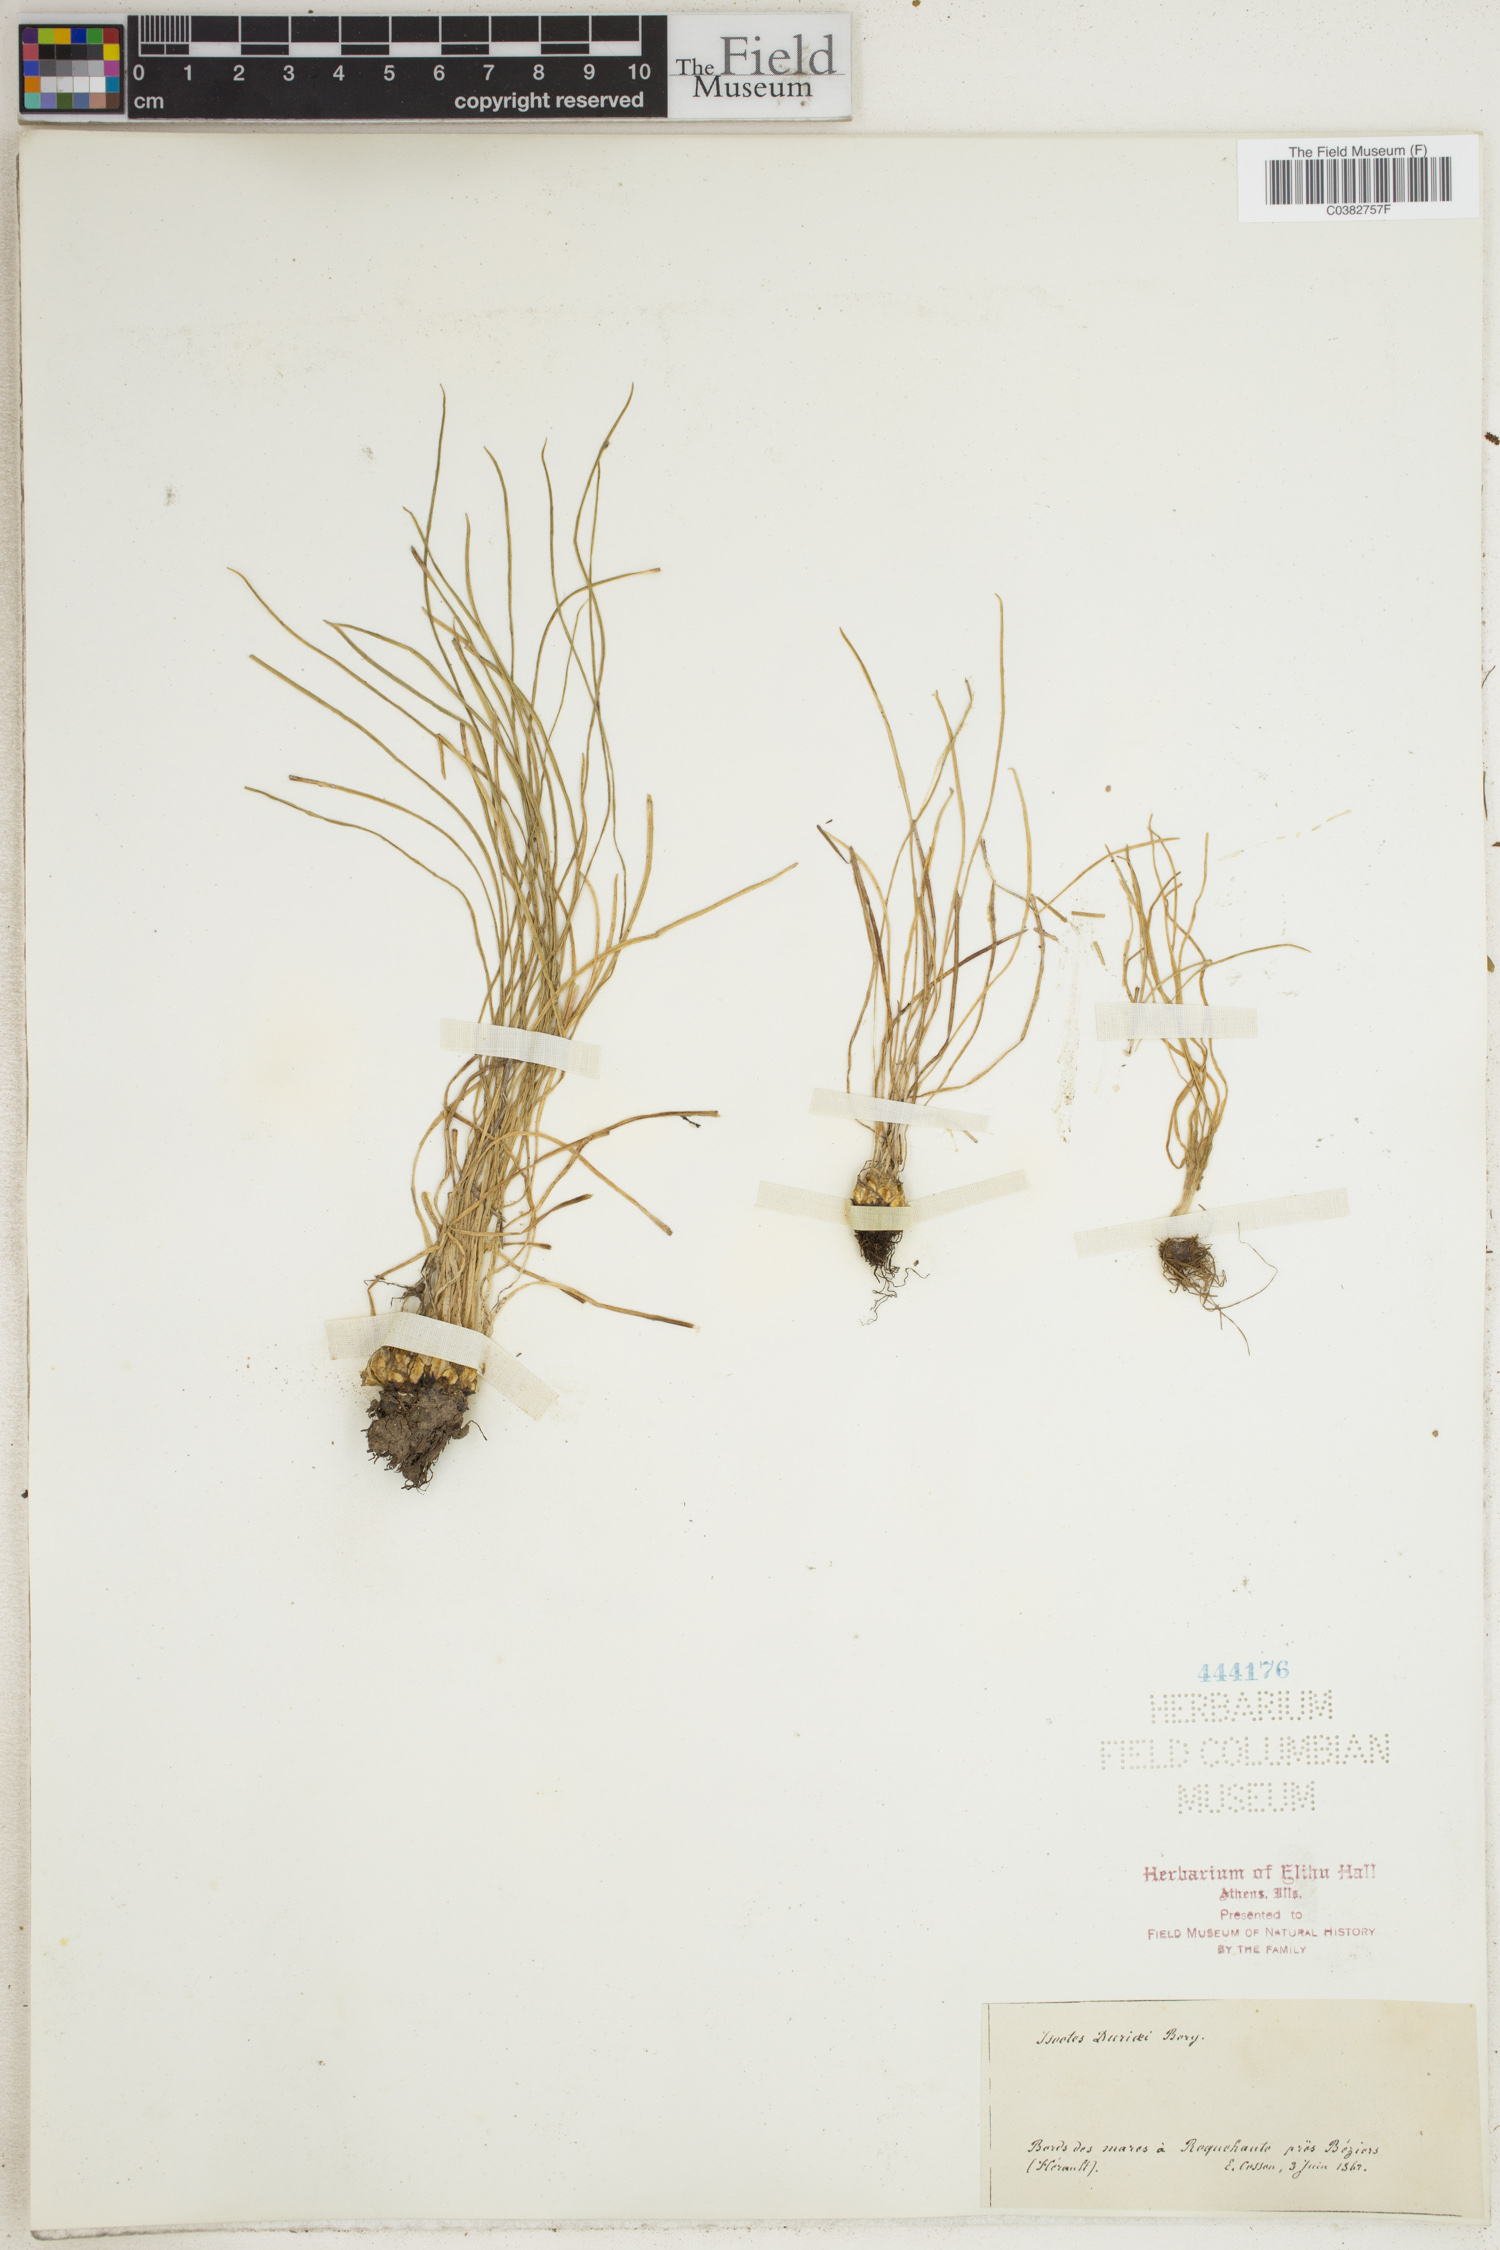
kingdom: Plantae
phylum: Tracheophyta
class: Lycopodiopsida
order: Isoetales
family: Isoetaceae
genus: Isoetes
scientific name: Isoetes duriei
